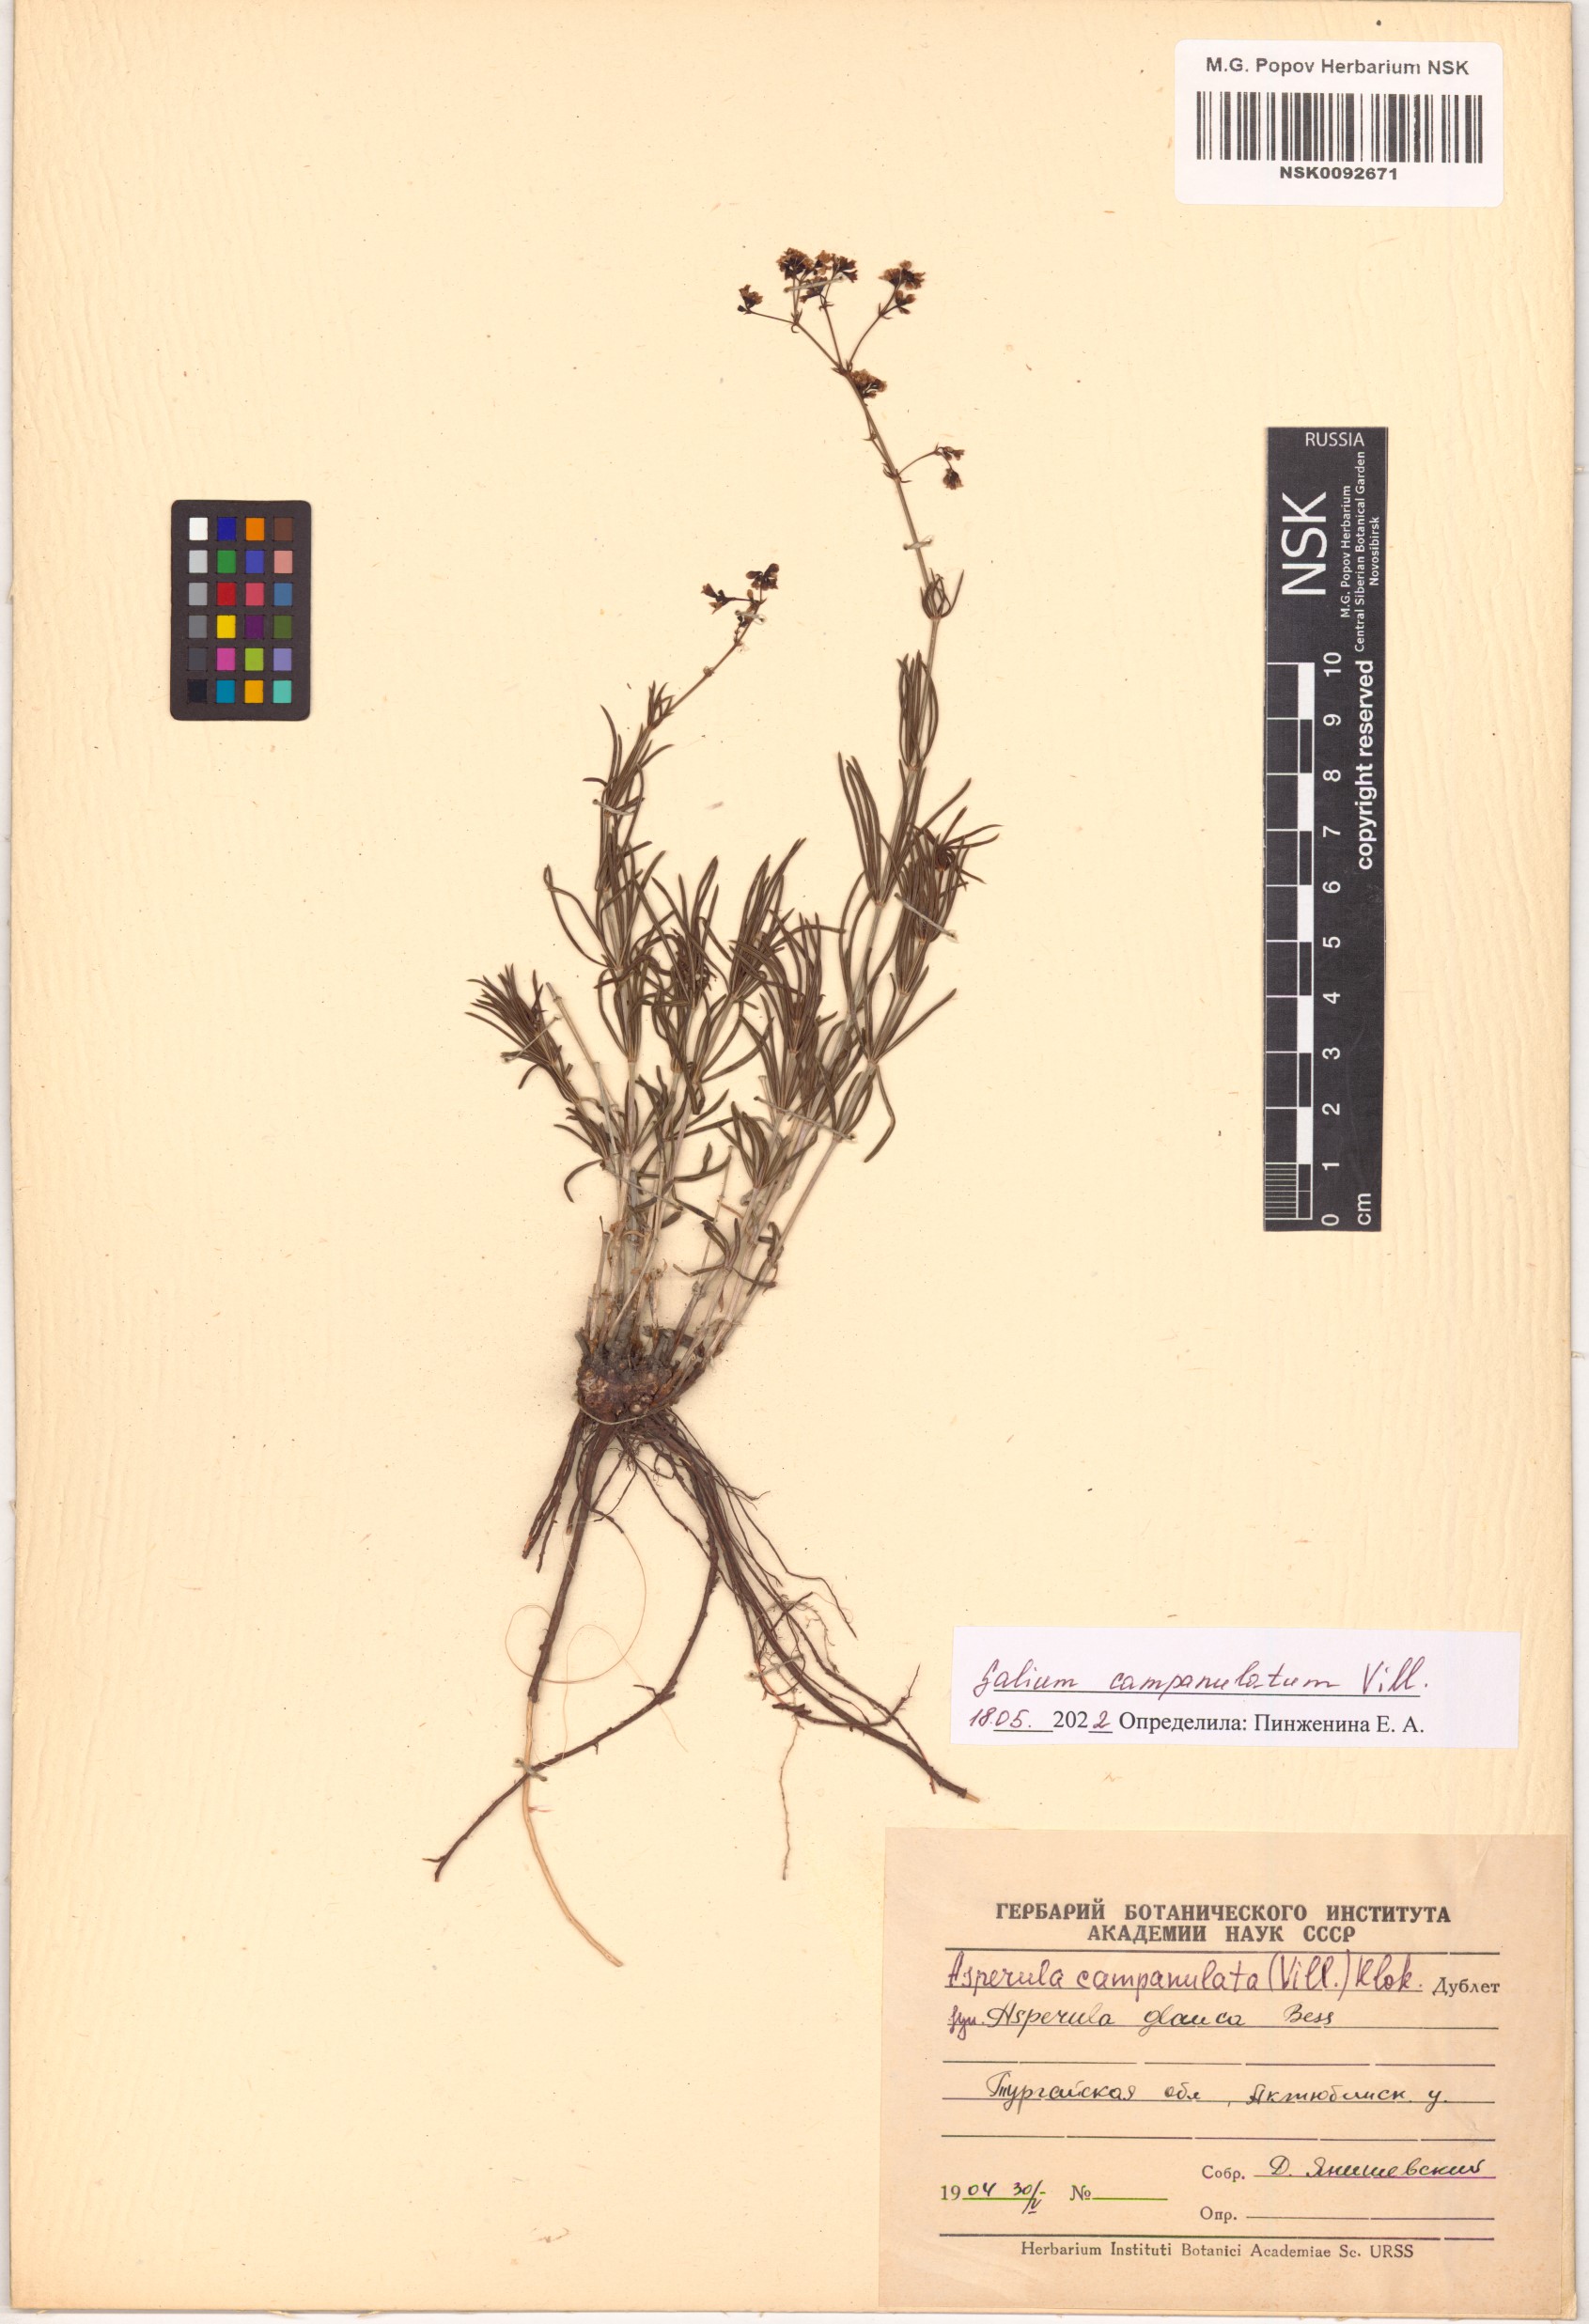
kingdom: Plantae
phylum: Tracheophyta
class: Magnoliopsida
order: Gentianales
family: Rubiaceae
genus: Galium
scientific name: Galium glaucum
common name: Waxy bedstraw
